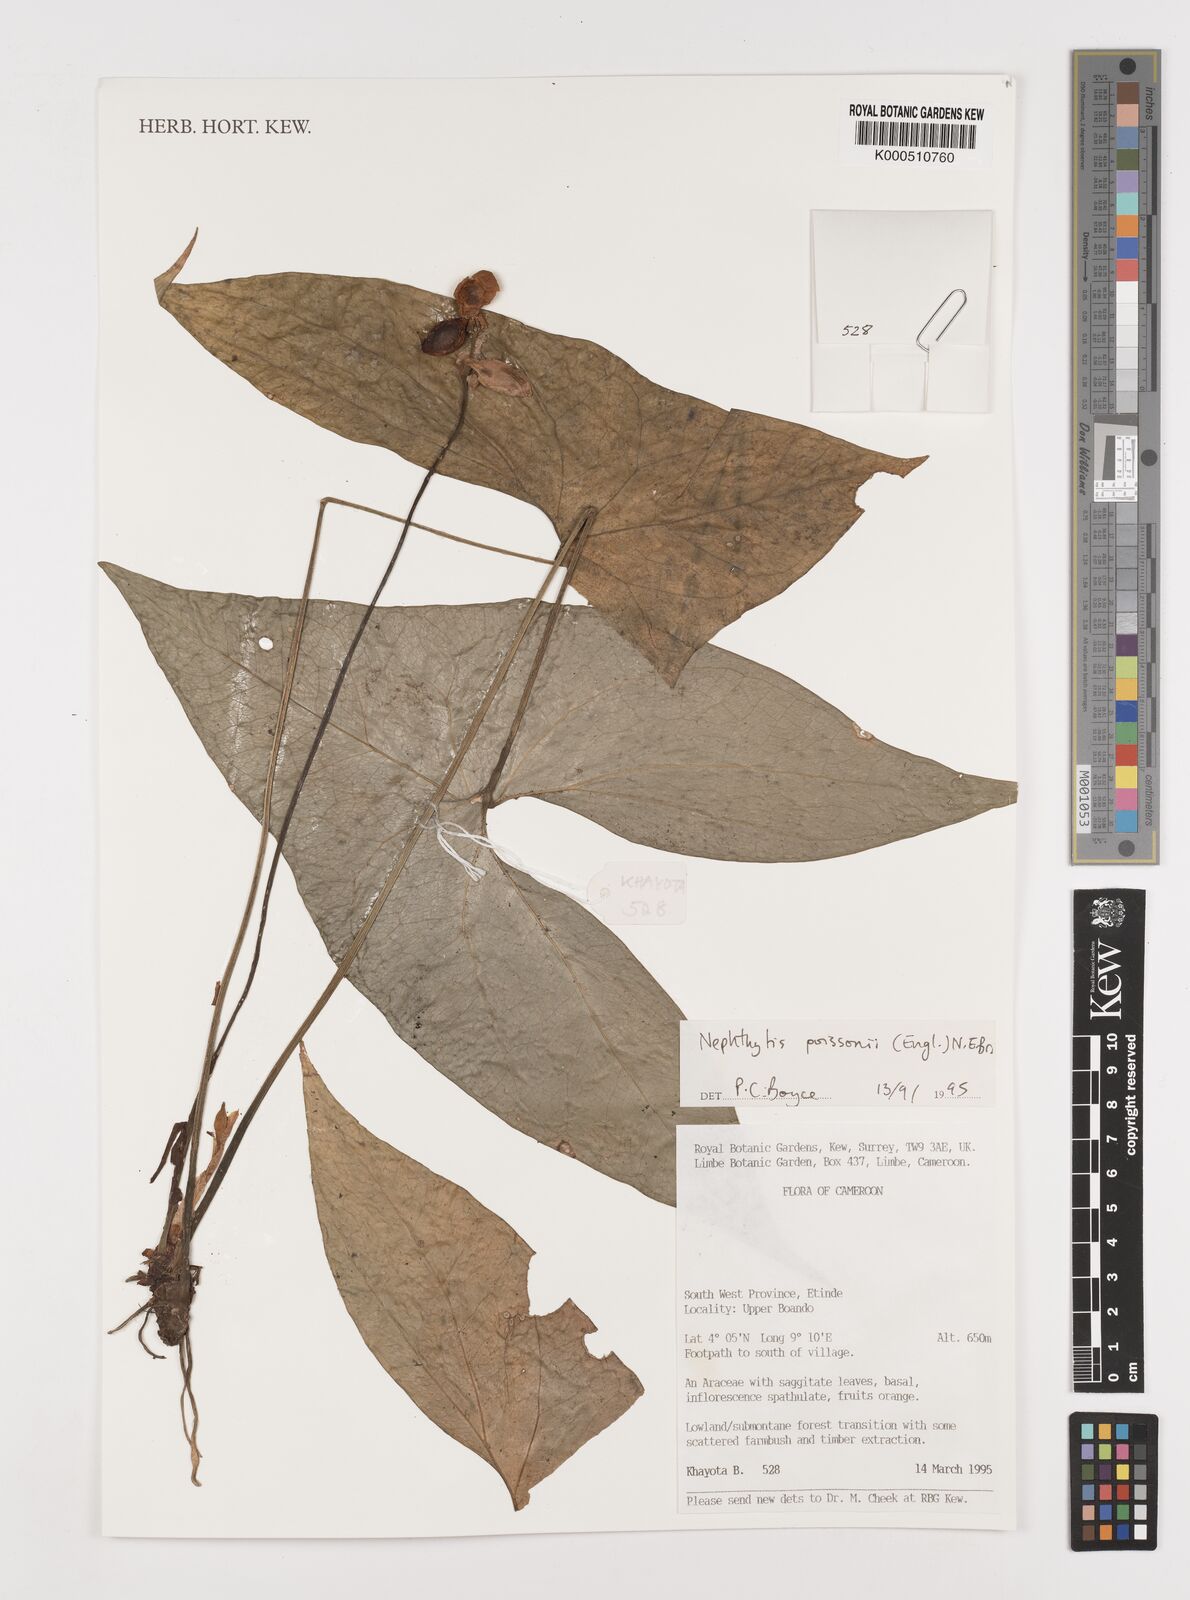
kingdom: Plantae
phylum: Tracheophyta
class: Liliopsida
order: Alismatales
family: Araceae
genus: Nephthytis
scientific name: Nephthytis poissonii
